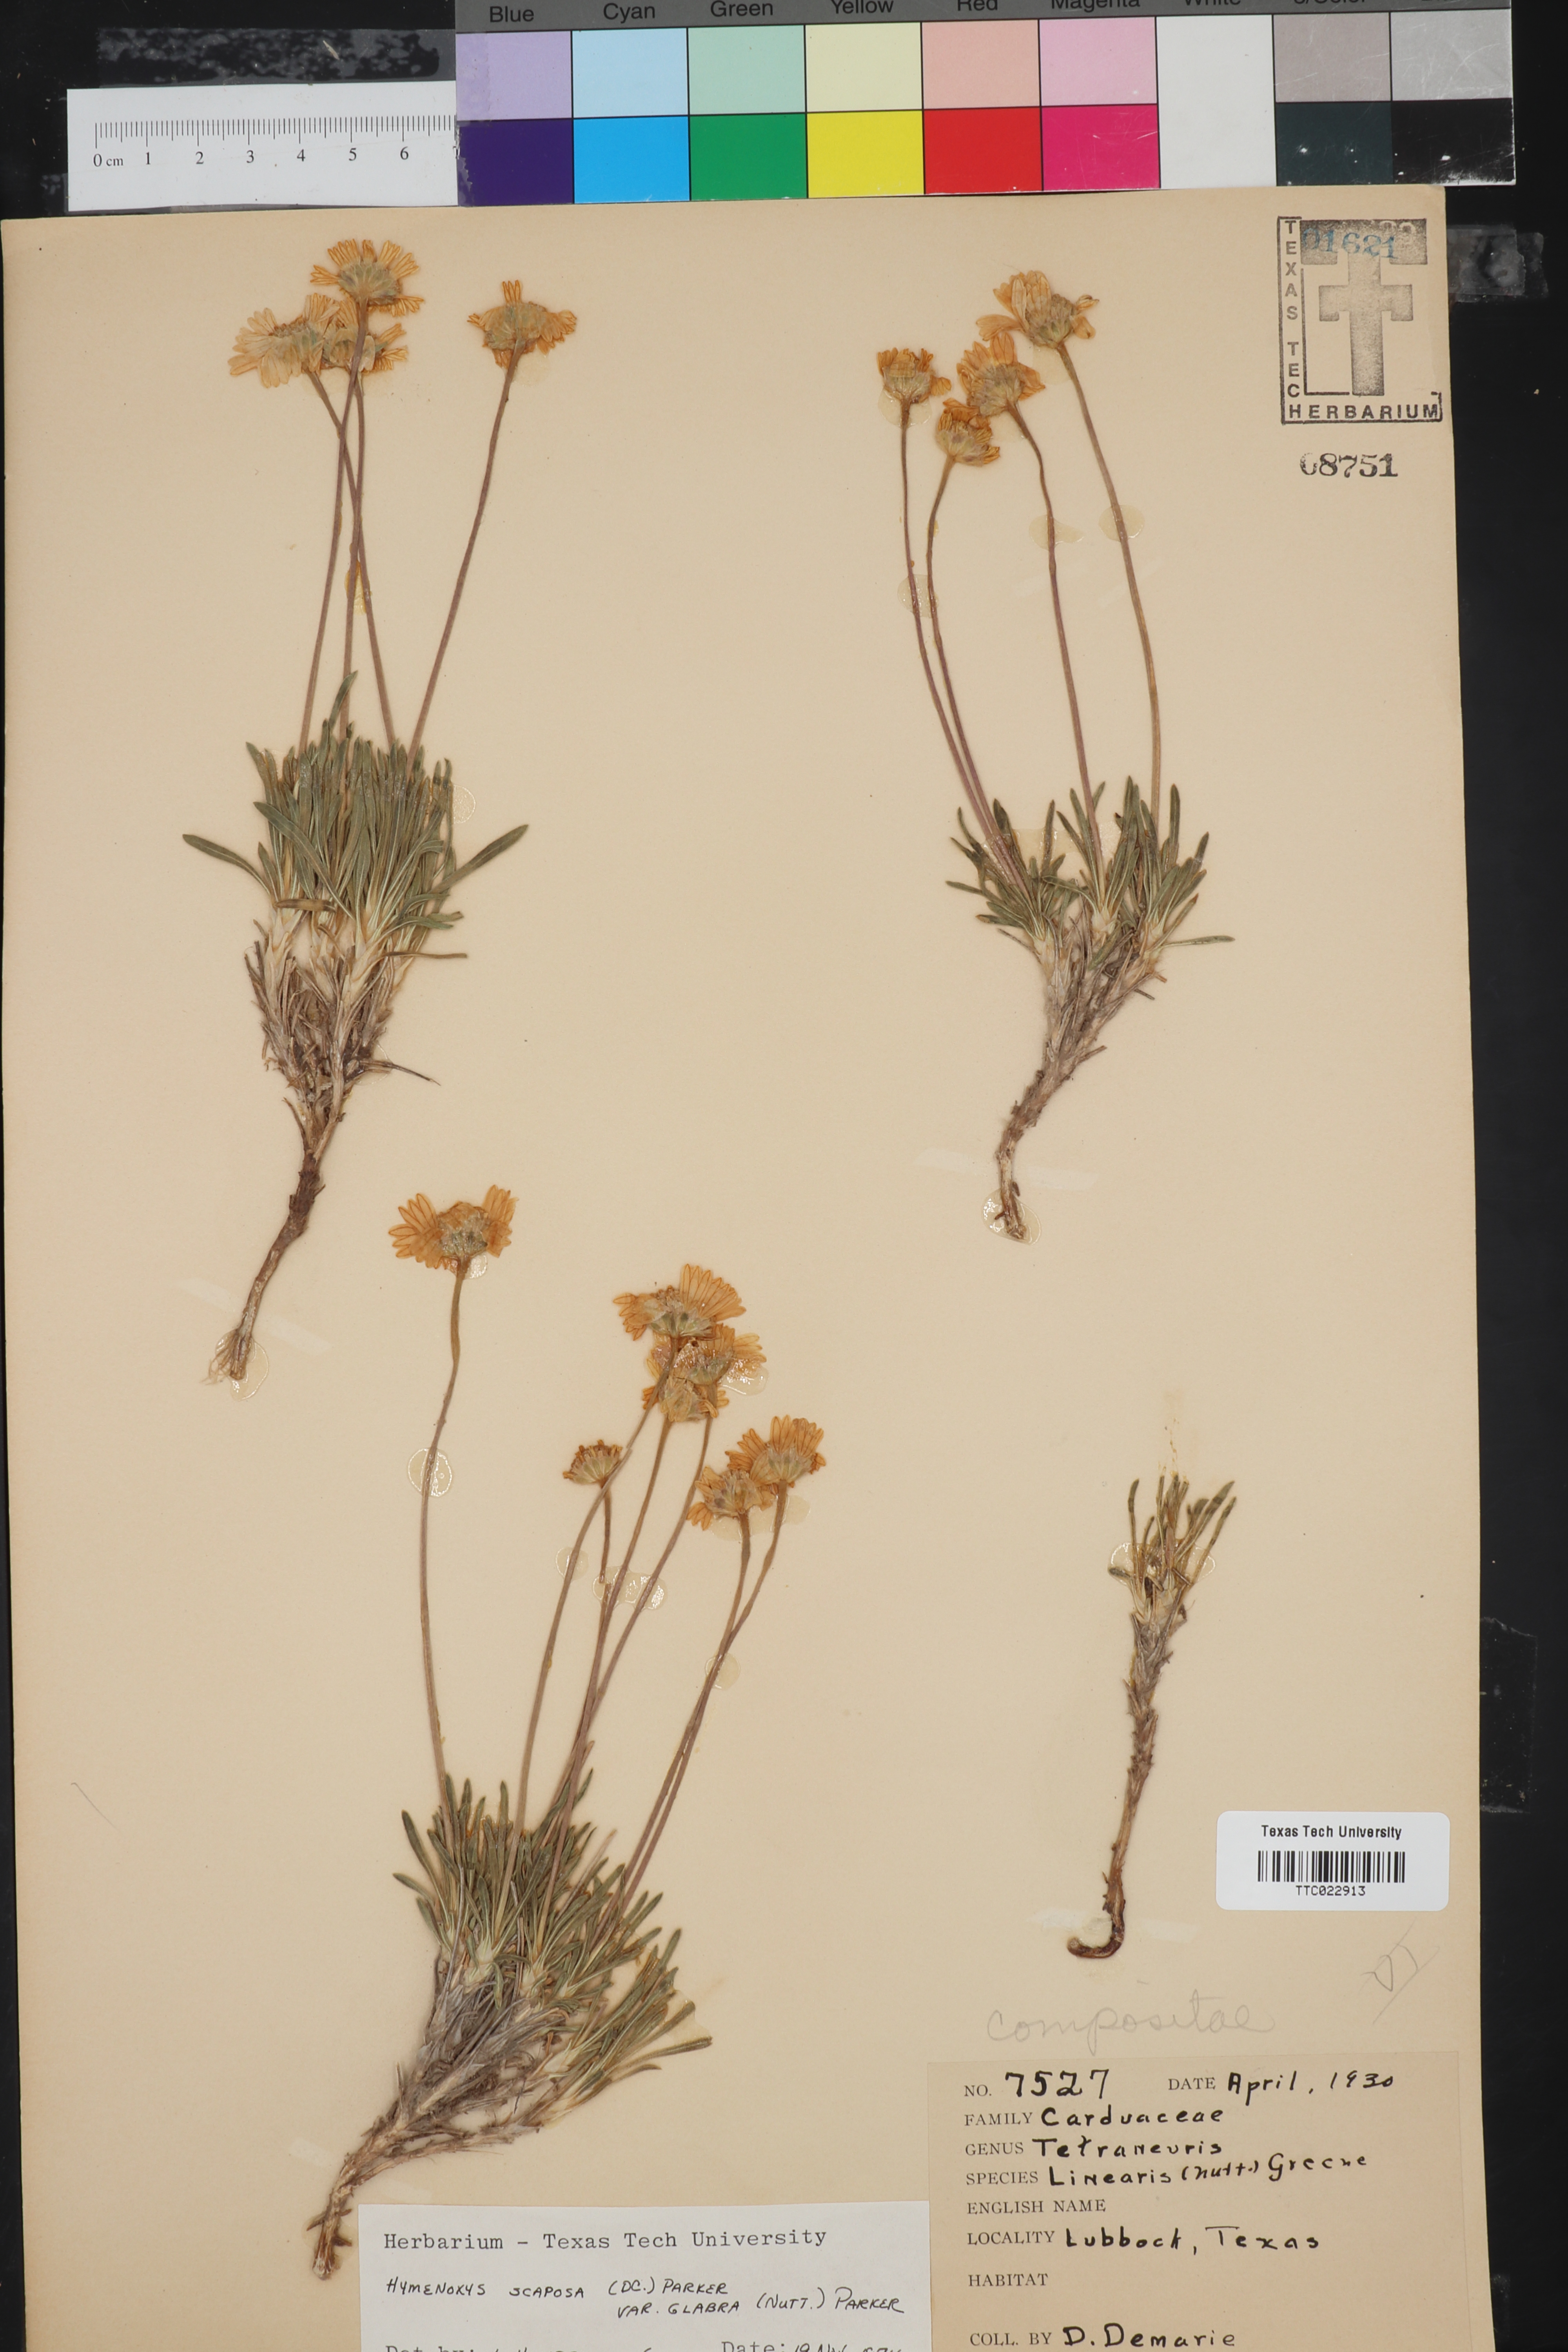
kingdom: Plantae
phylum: Tracheophyta
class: Magnoliopsida
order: Asterales
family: Asteraceae
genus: Tetraneuris
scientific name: Tetraneuris scaposa
